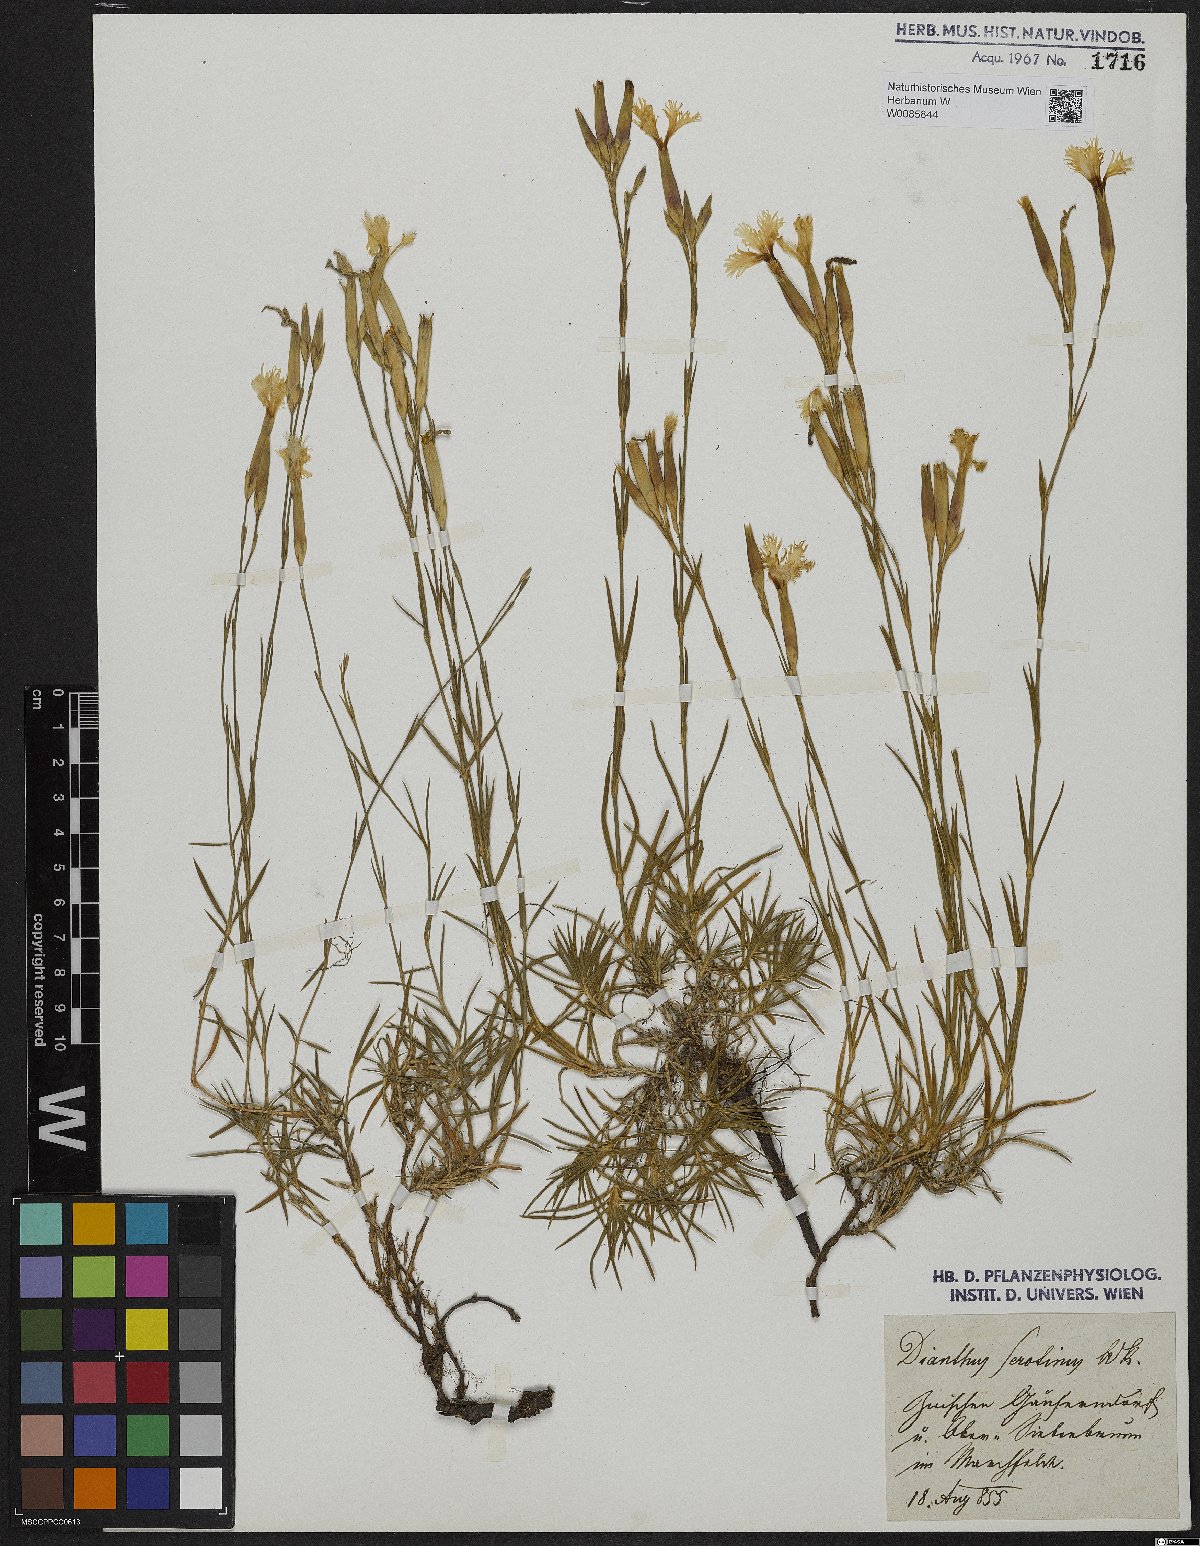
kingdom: Plantae
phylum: Tracheophyta
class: Magnoliopsida
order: Caryophyllales
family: Caryophyllaceae
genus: Dianthus
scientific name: Dianthus serotinus
